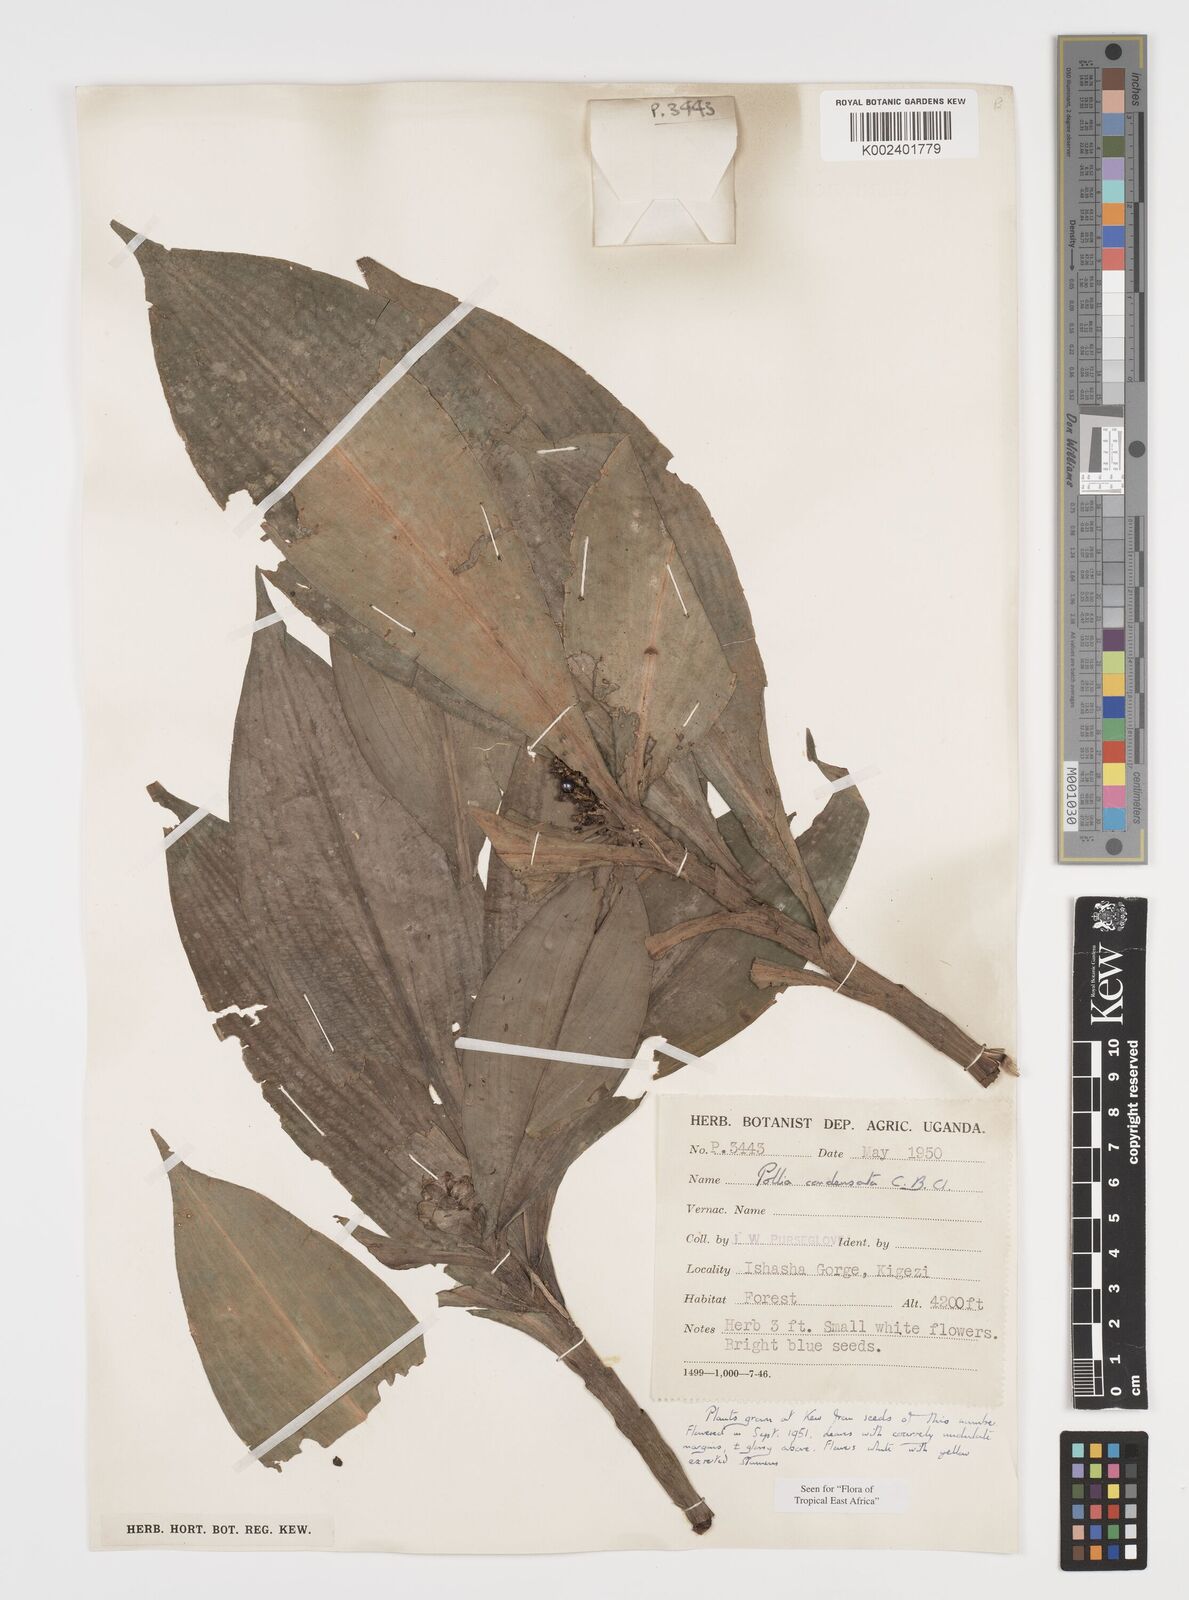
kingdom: Plantae
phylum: Tracheophyta
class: Liliopsida
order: Commelinales
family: Commelinaceae
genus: Pollia
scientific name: Pollia condensata
